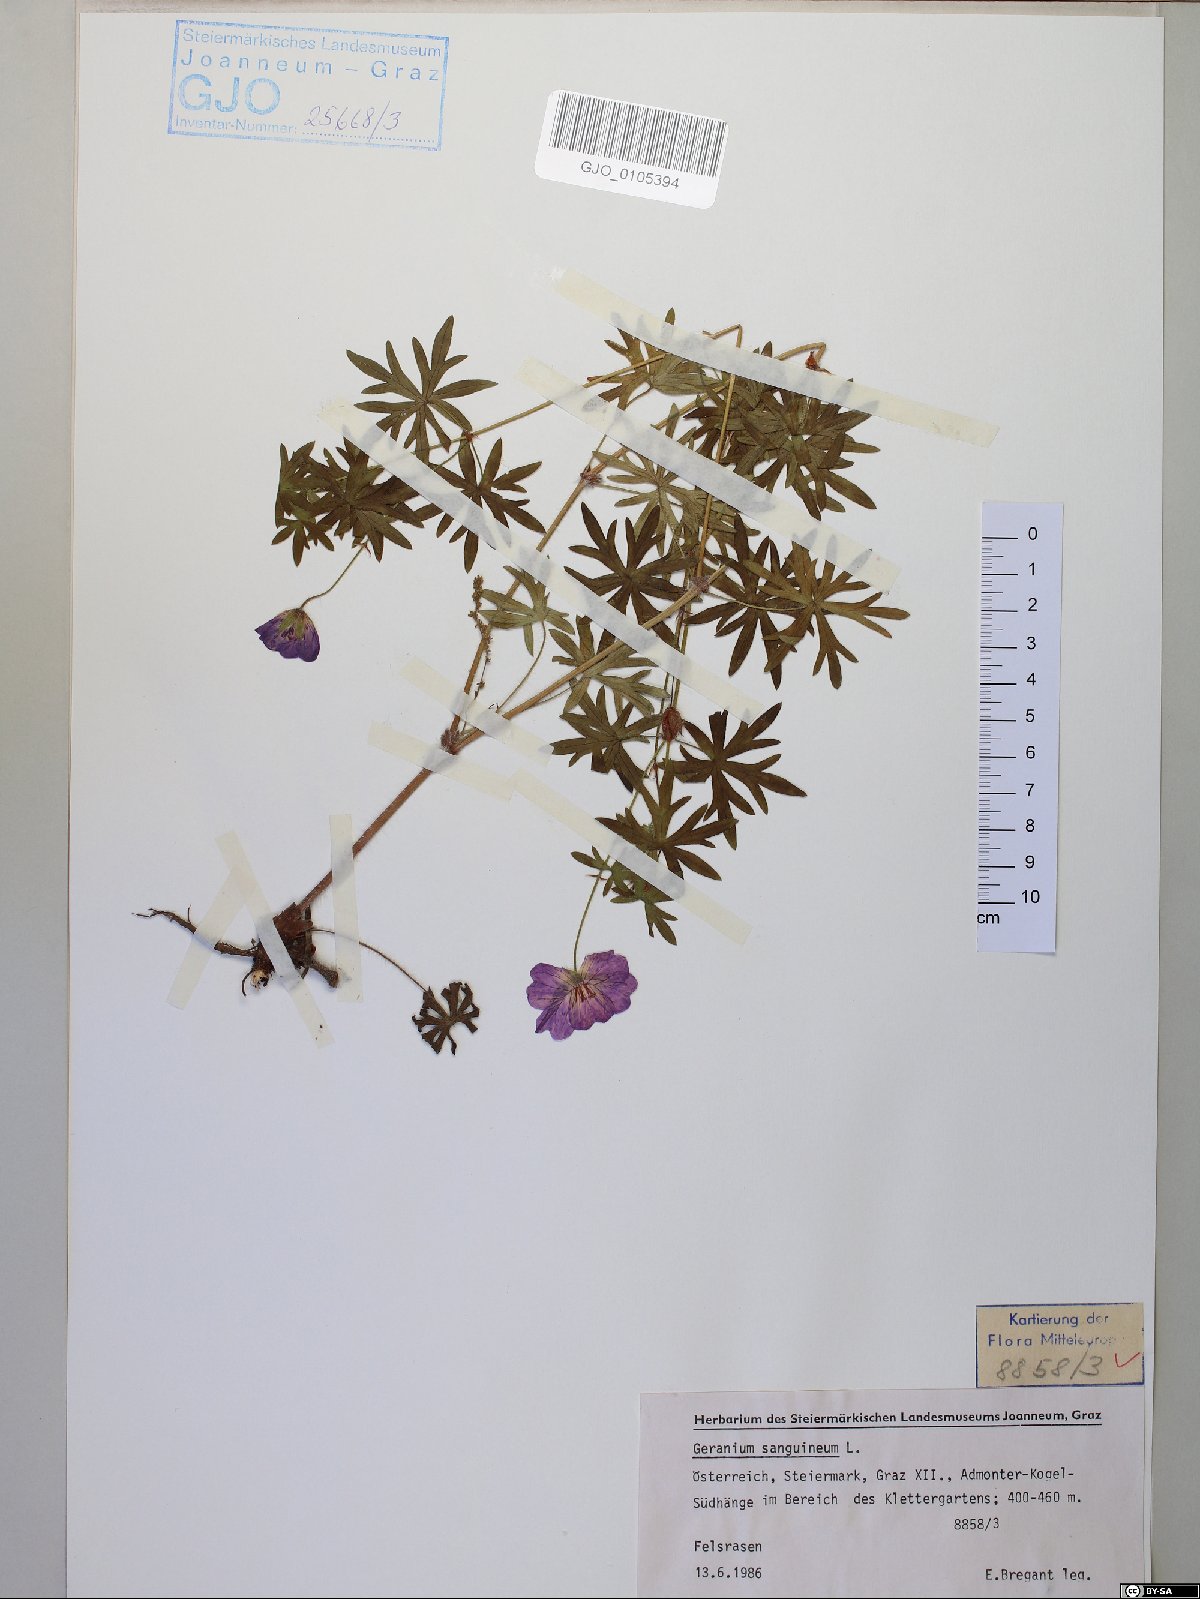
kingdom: Plantae
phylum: Tracheophyta
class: Magnoliopsida
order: Geraniales
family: Geraniaceae
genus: Geranium
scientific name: Geranium sanguineum
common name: Bloody crane's-bill
